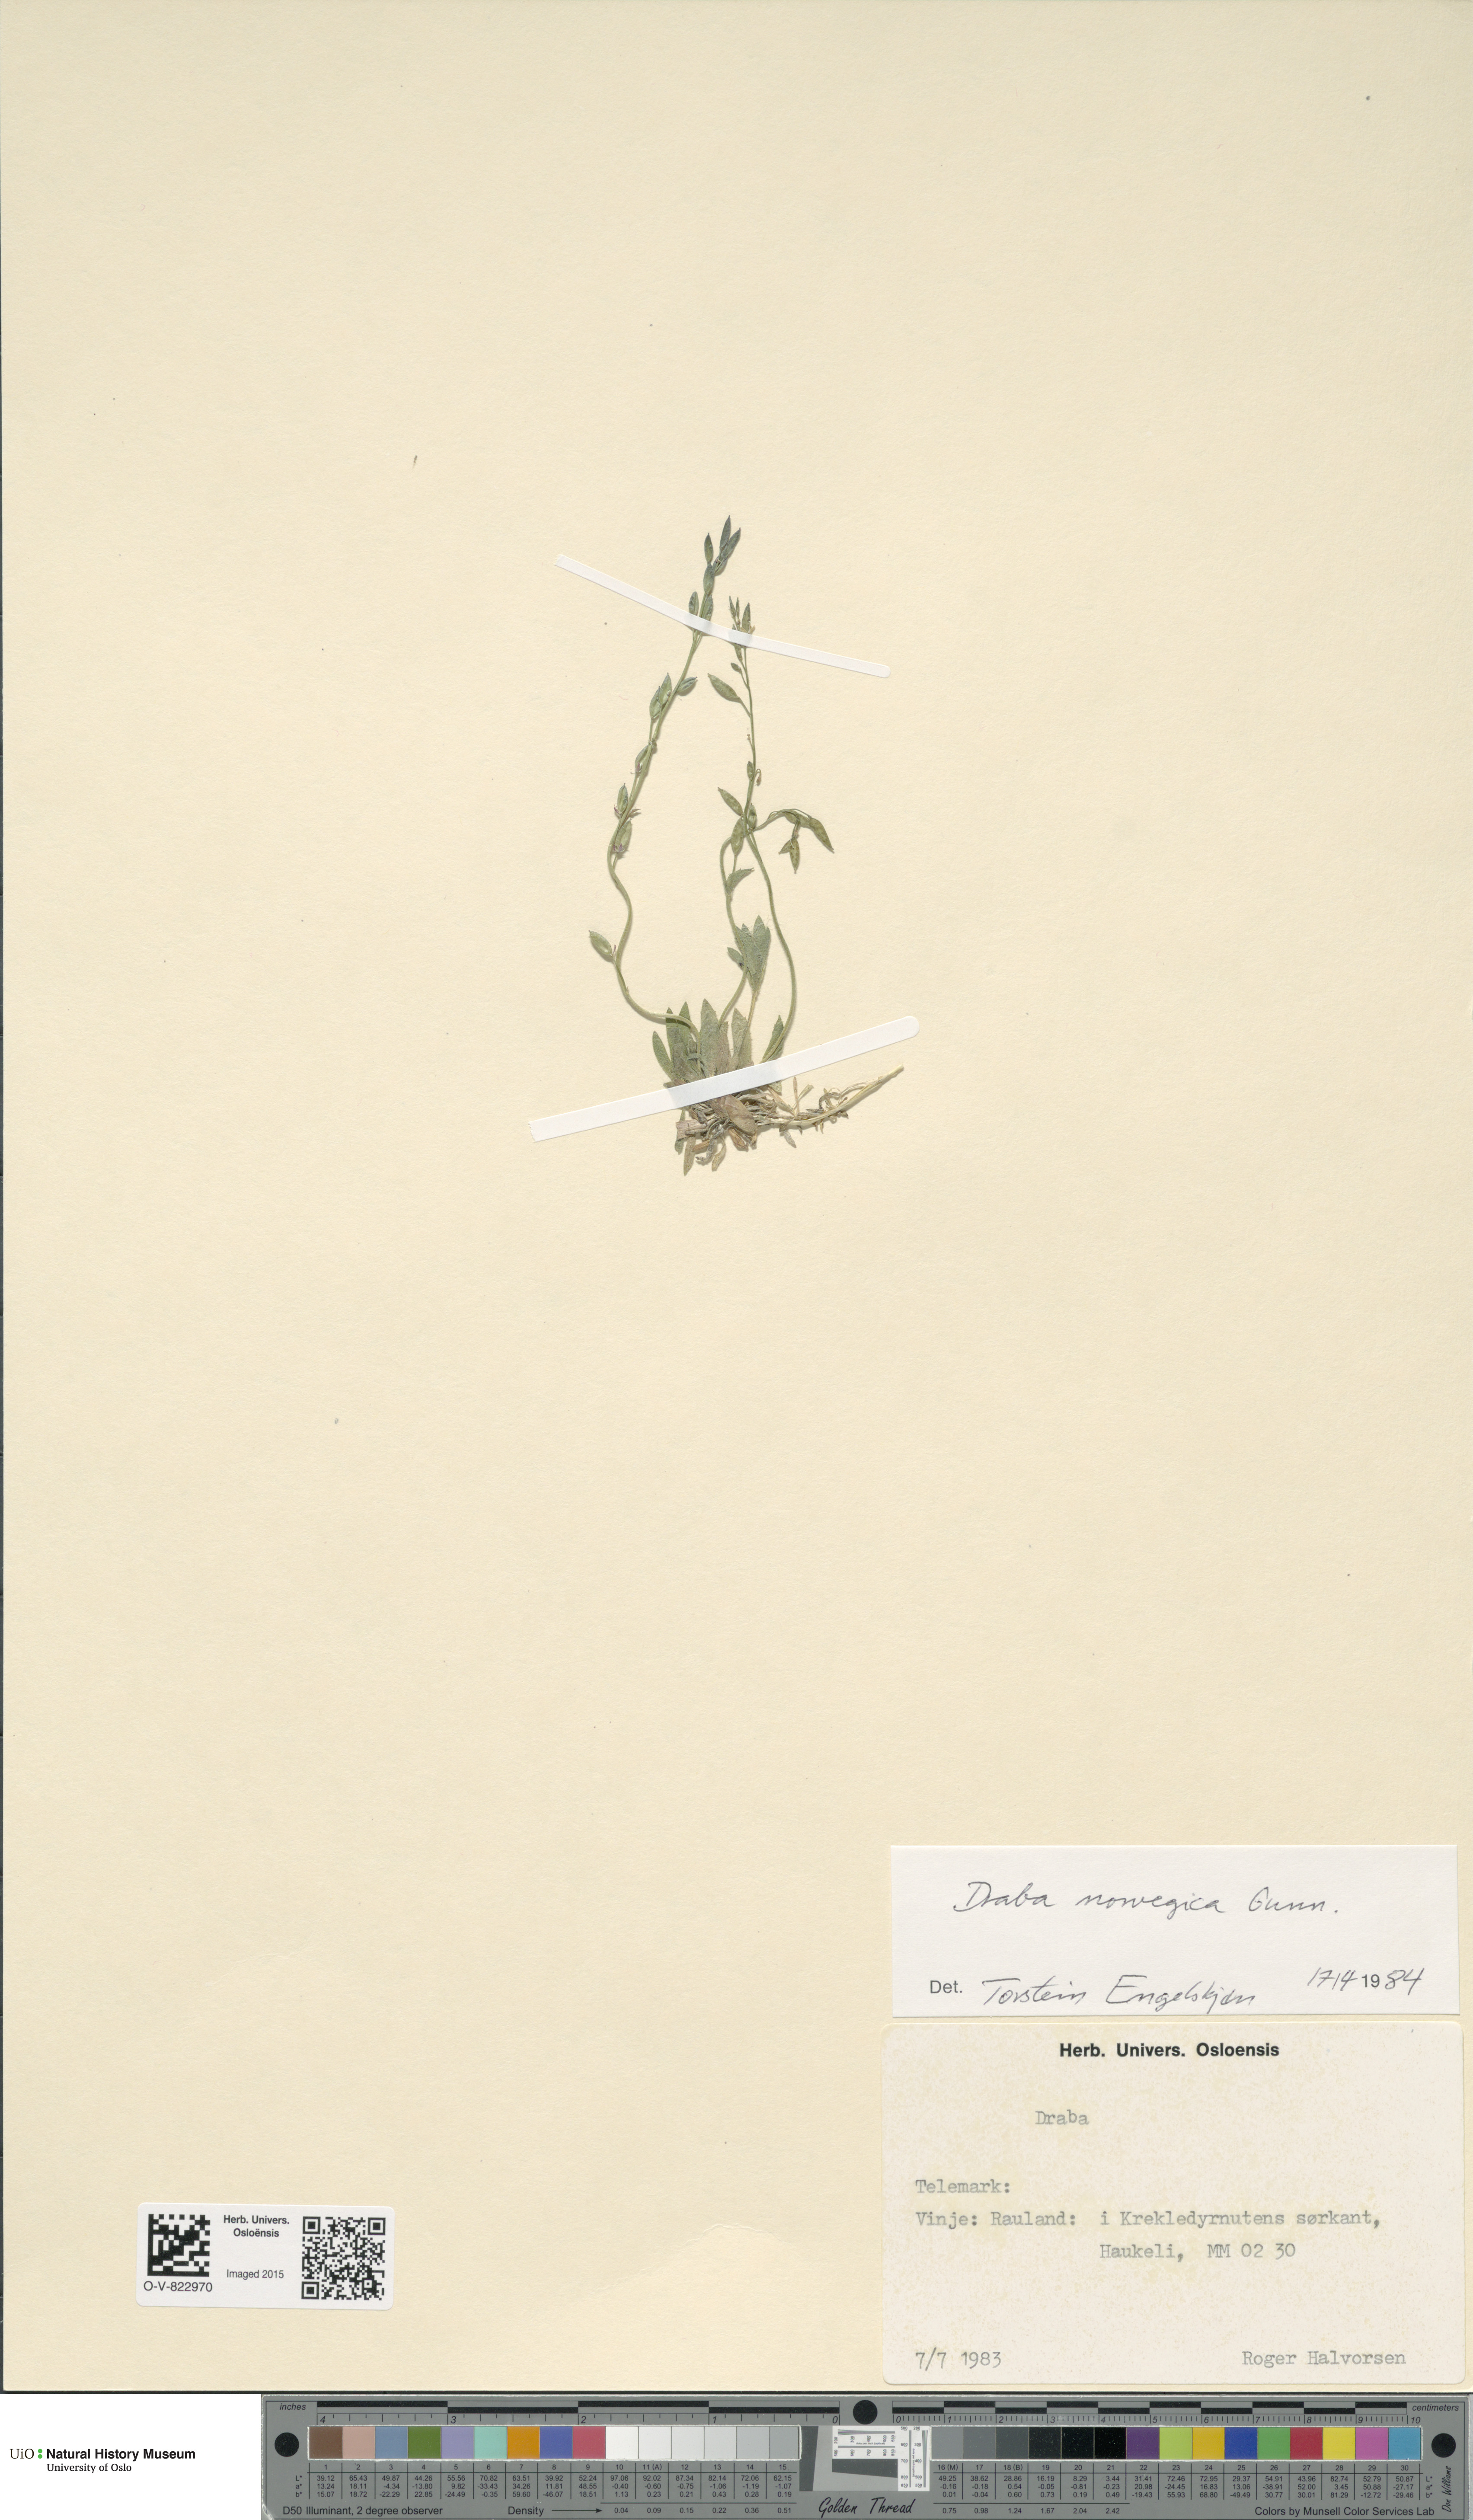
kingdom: Plantae
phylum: Tracheophyta
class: Magnoliopsida
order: Brassicales
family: Brassicaceae
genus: Draba
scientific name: Draba norvegica
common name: Rock whitlowgrass
